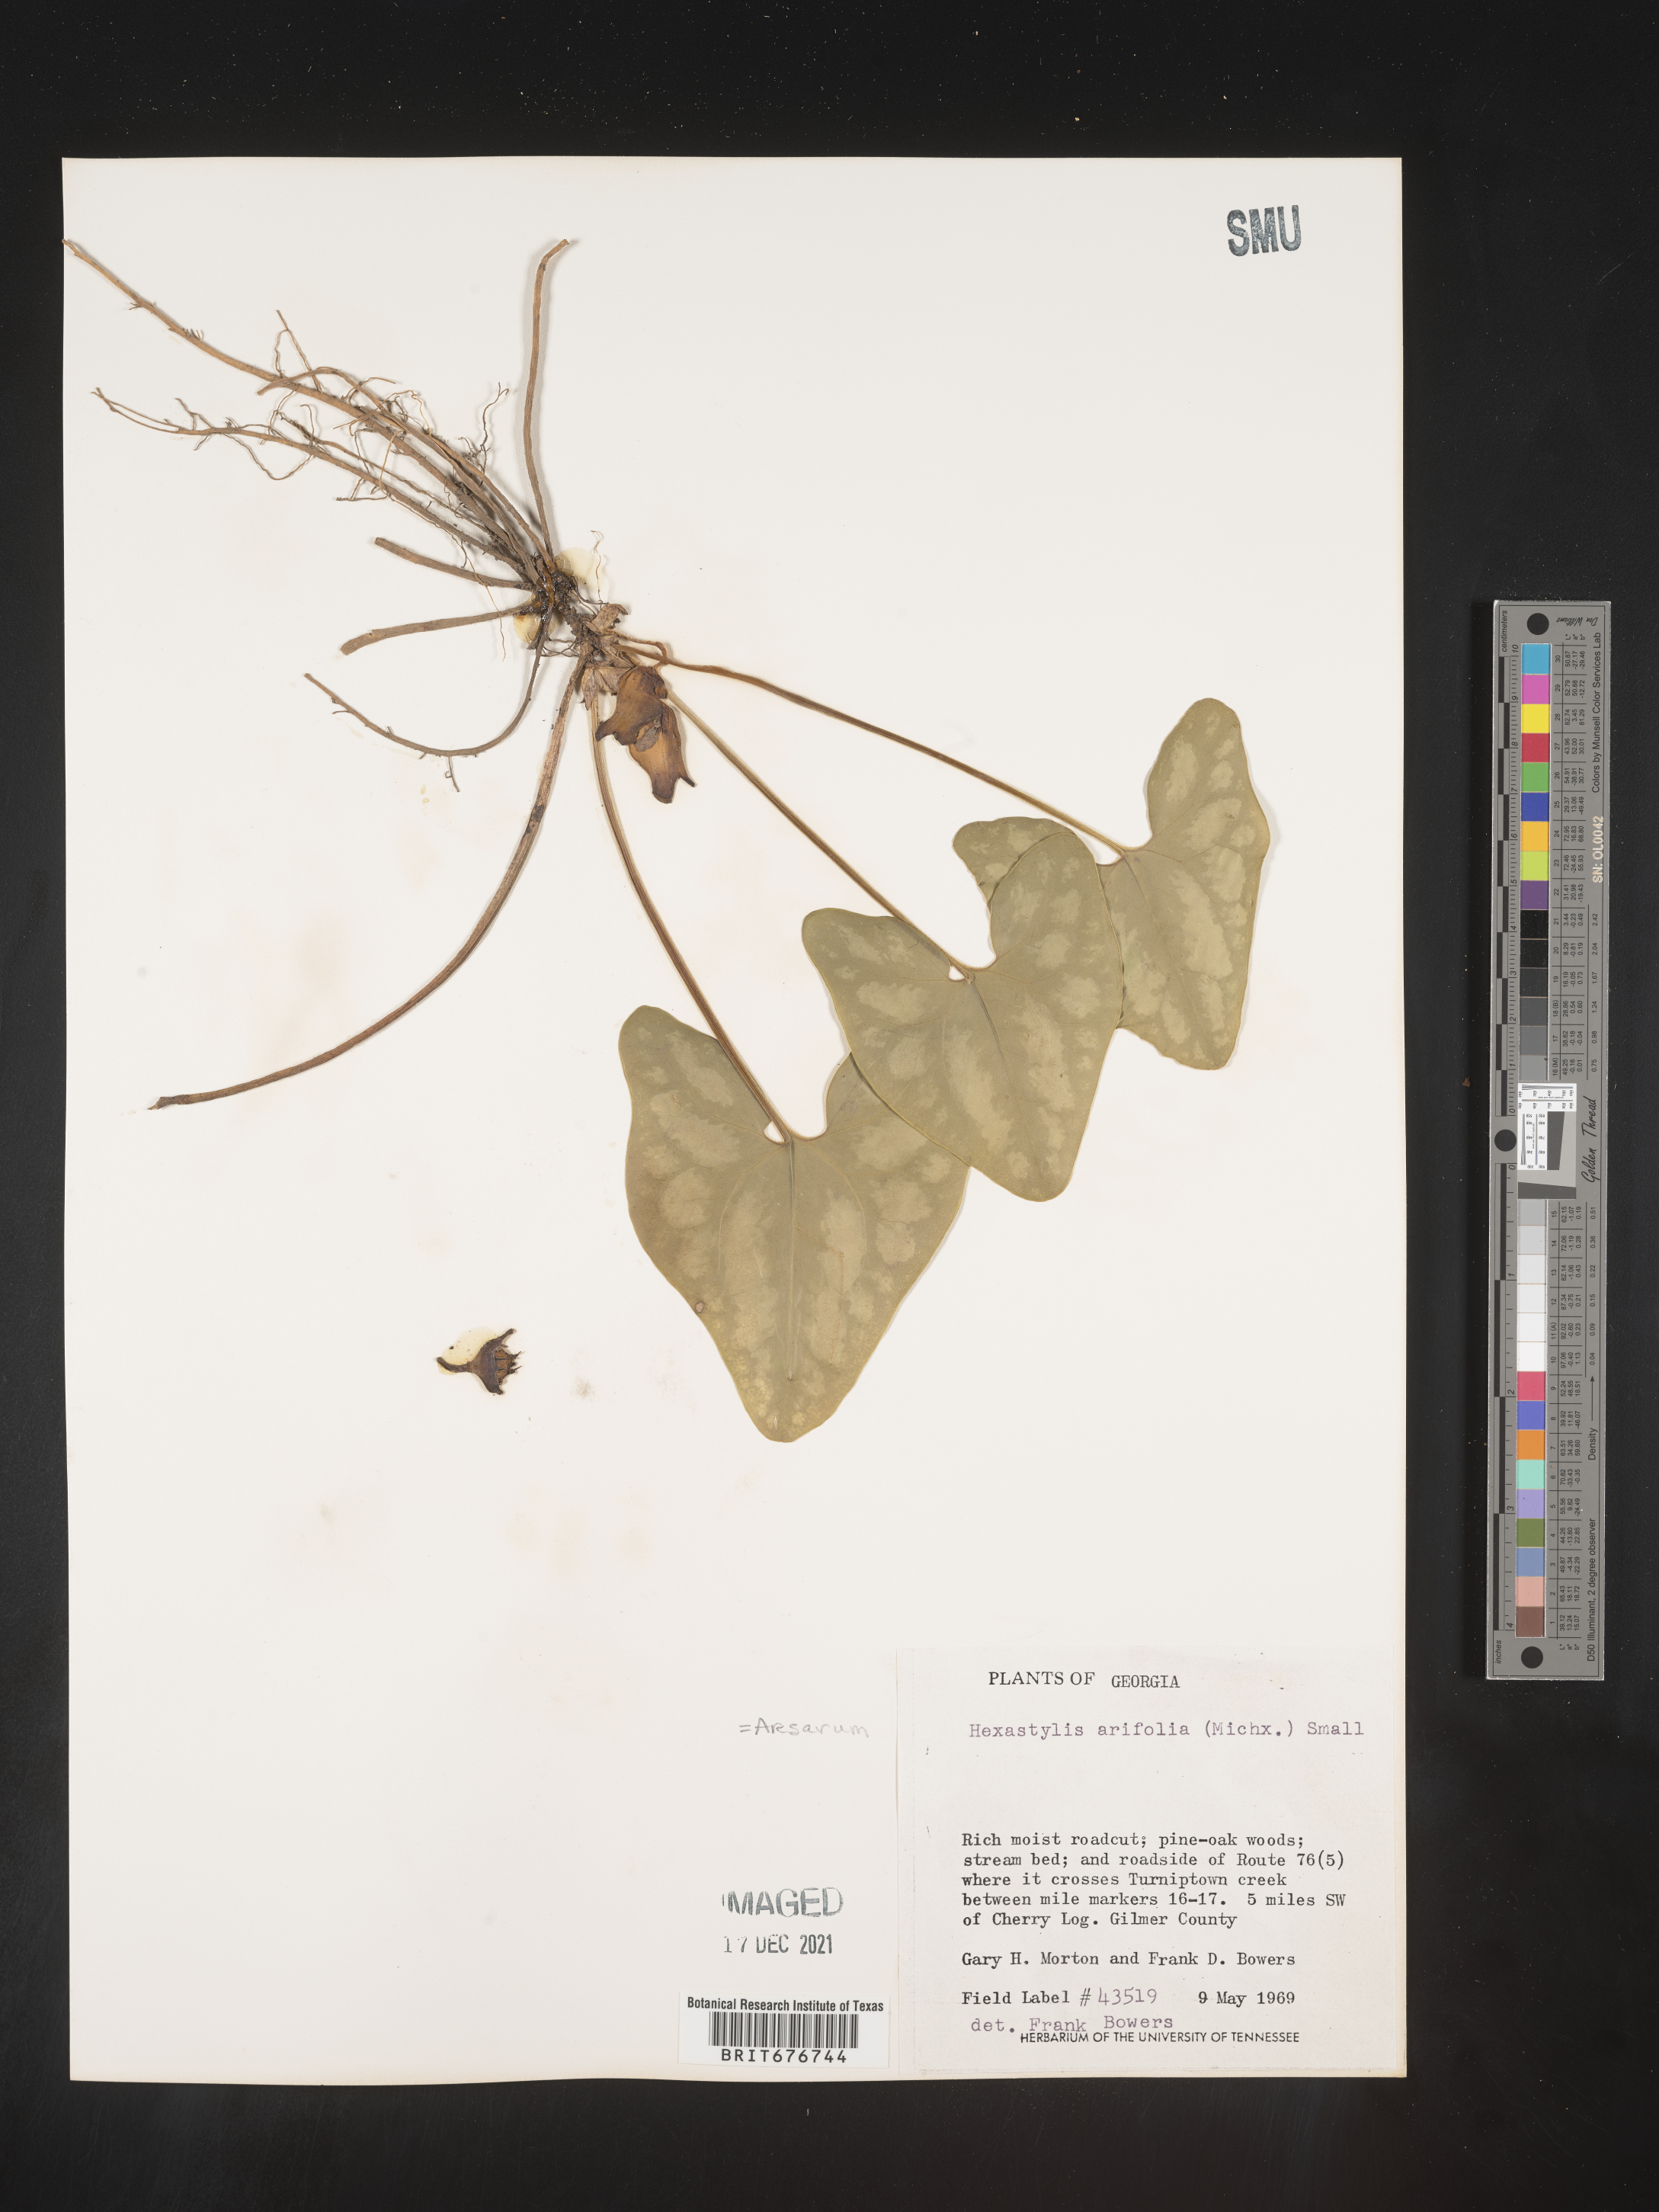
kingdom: Plantae
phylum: Tracheophyta
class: Magnoliopsida
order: Piperales
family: Aristolochiaceae
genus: Hexastylis
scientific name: Hexastylis arifolia
